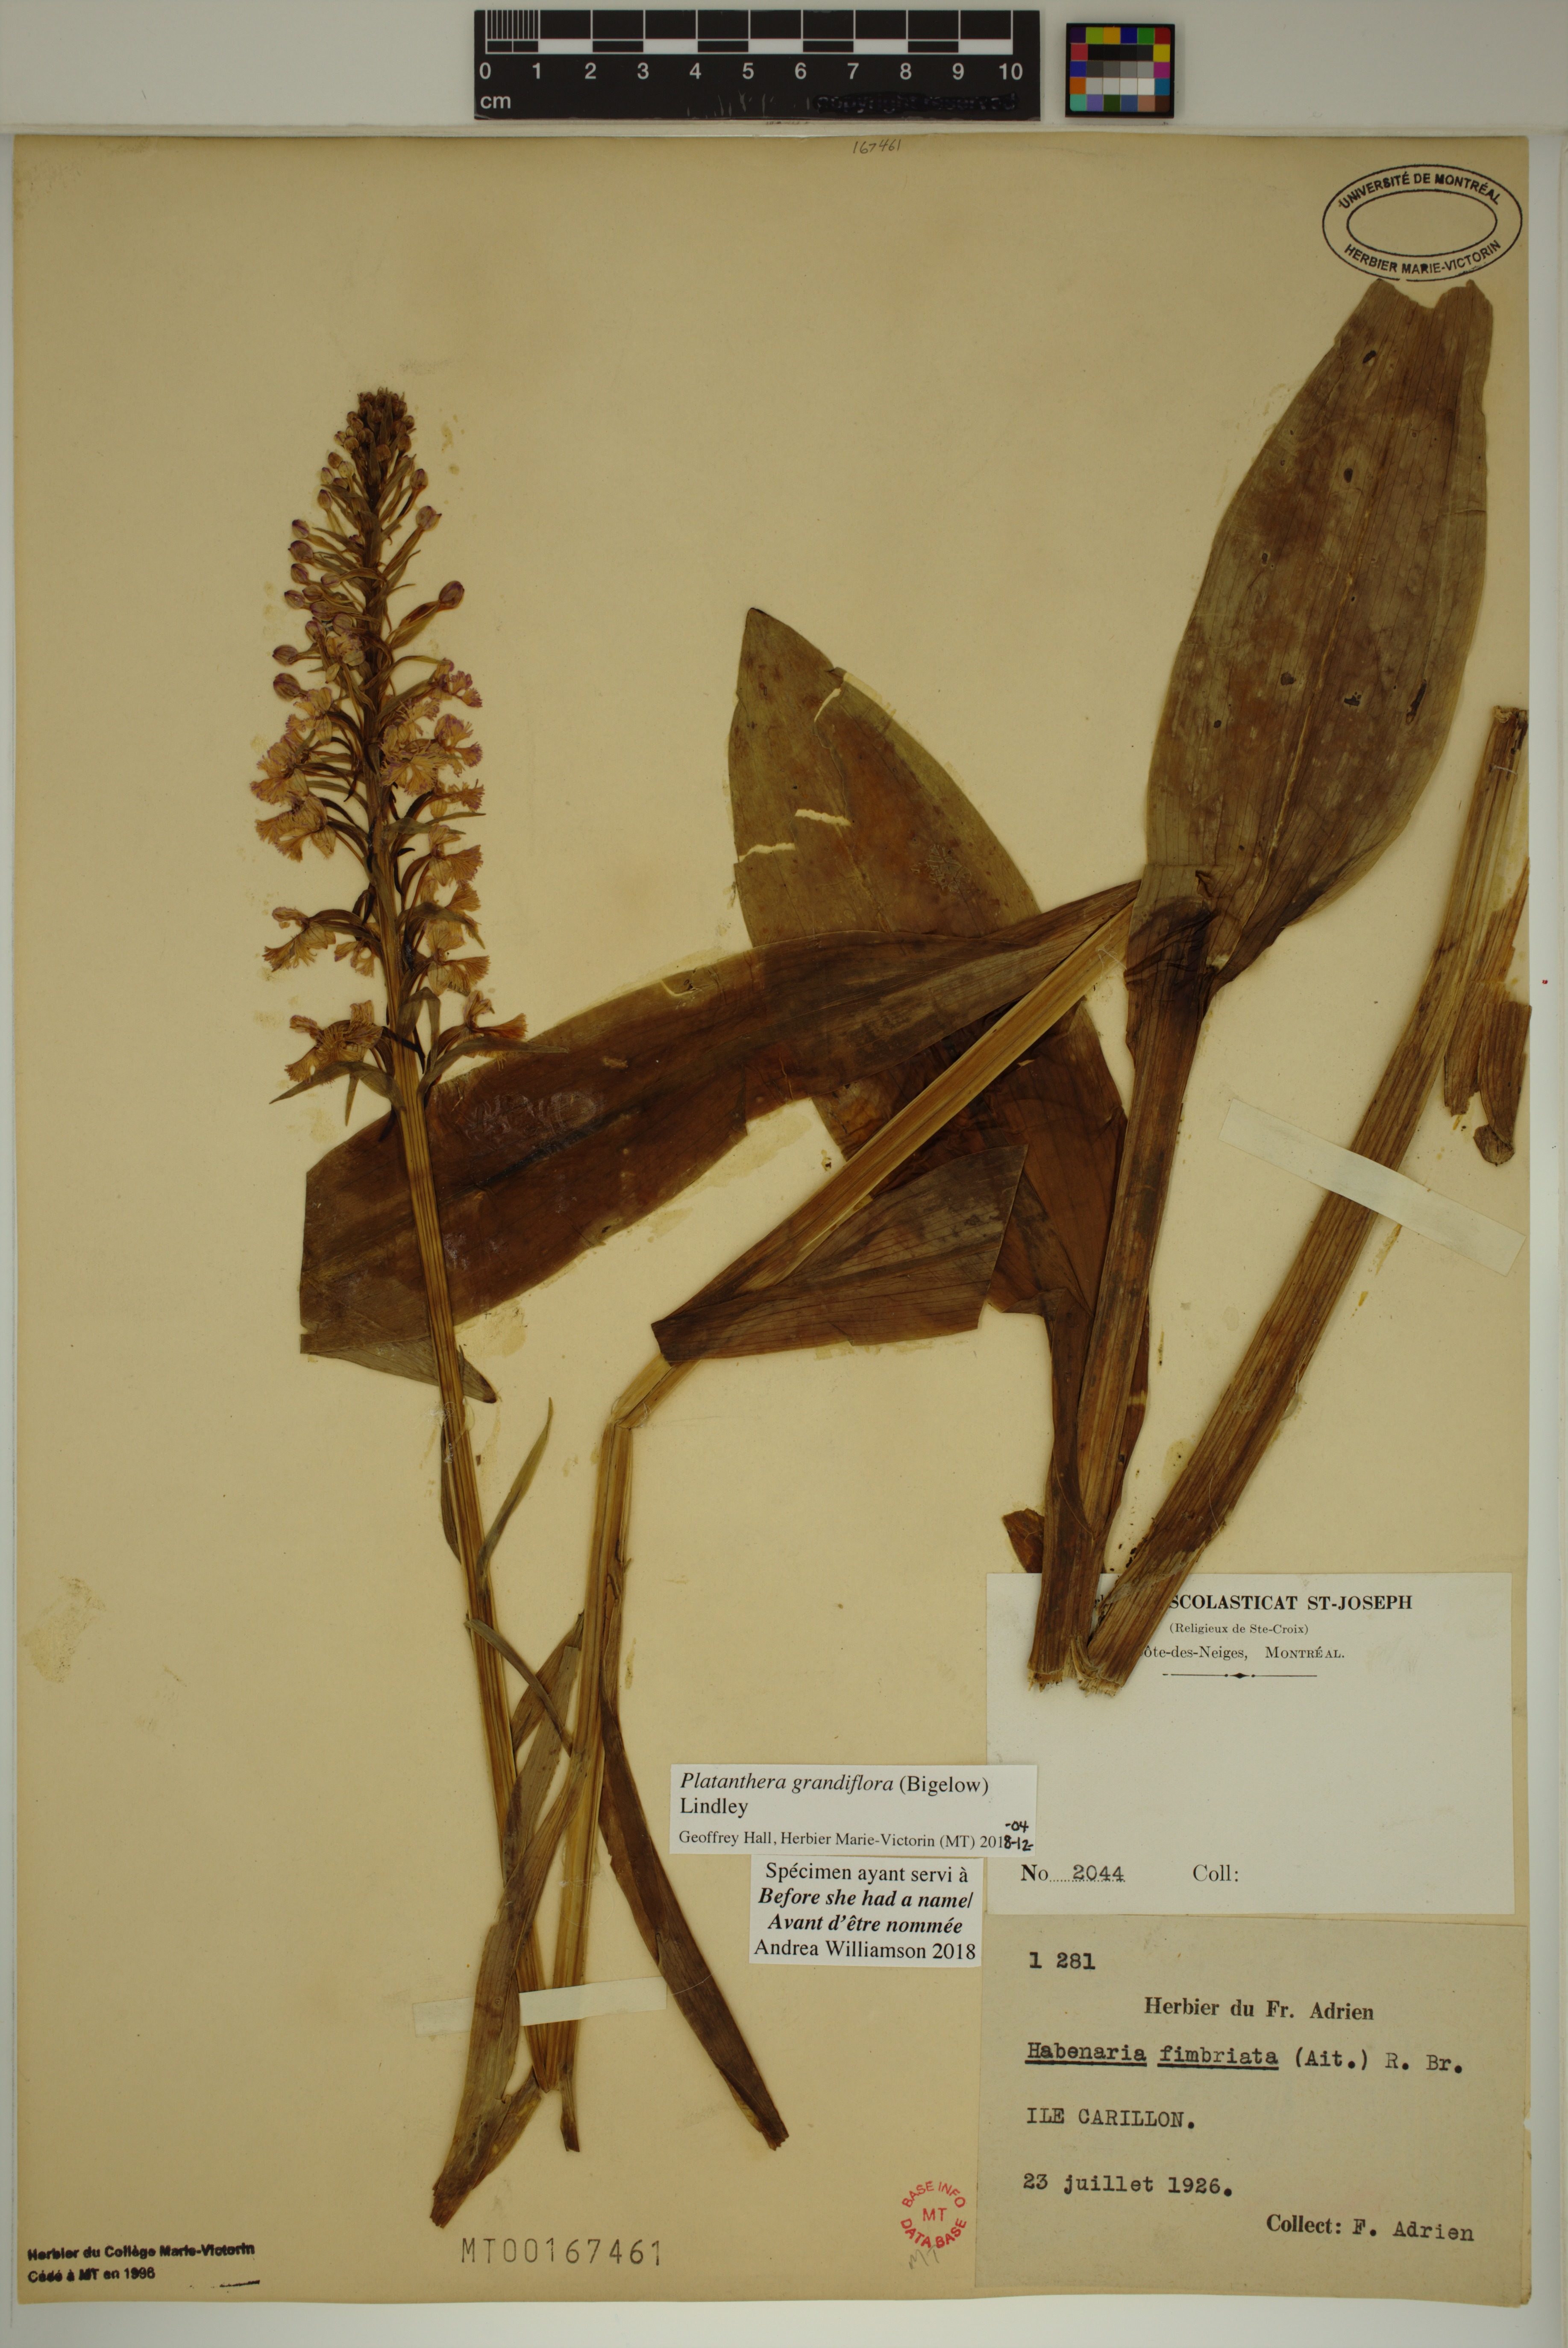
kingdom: Plantae
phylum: Tracheophyta
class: Liliopsida
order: Asparagales
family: Orchidaceae
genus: Platanthera
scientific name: Platanthera grandiflora
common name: Greater purple fringed orchid
